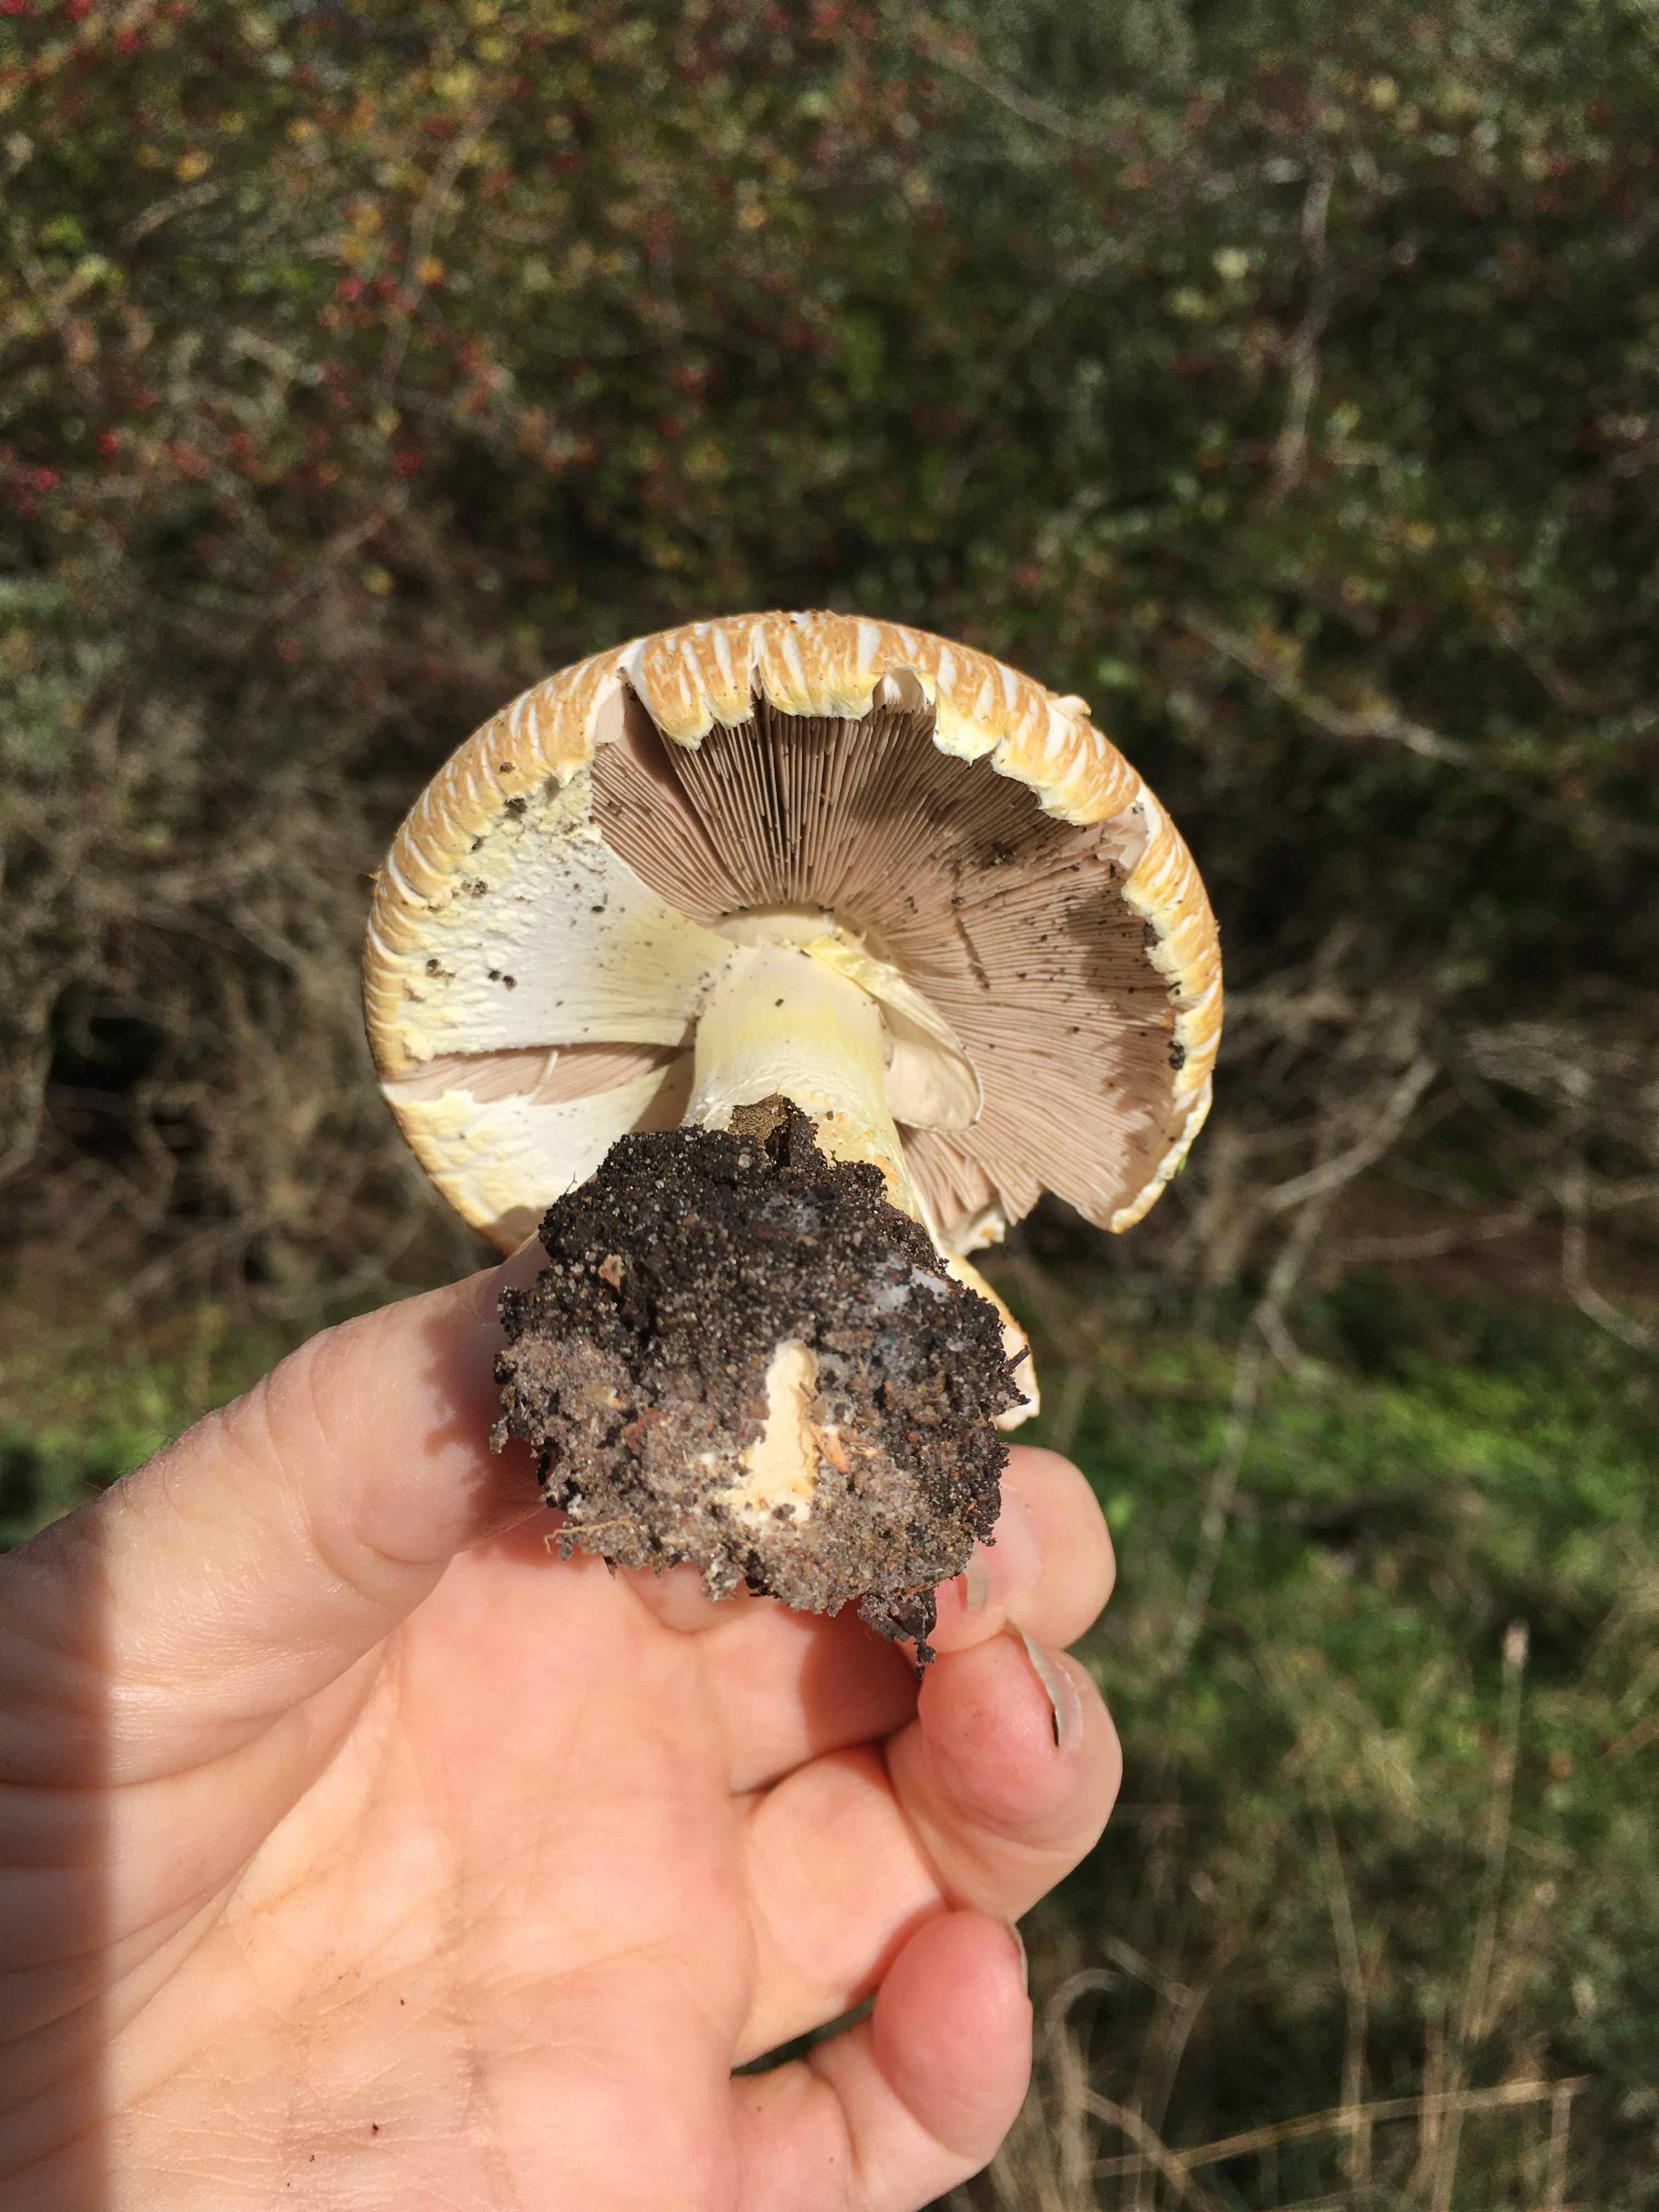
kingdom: Fungi
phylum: Basidiomycota
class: Agaricomycetes
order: Agaricales
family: Agaricaceae
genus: Agaricus
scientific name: Agaricus
